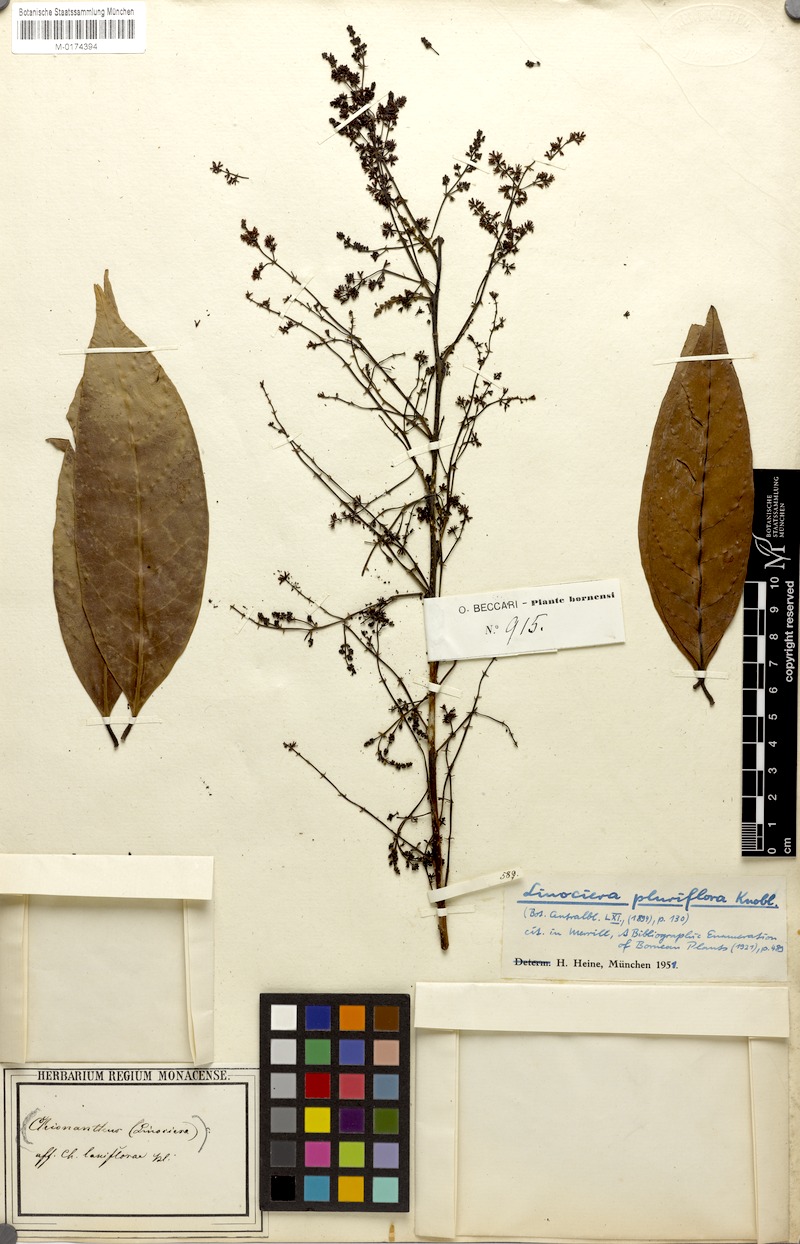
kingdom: Plantae
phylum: Tracheophyta
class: Magnoliopsida
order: Lamiales
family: Oleaceae
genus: Chionanthus
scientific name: Chionanthus pluriflorus
